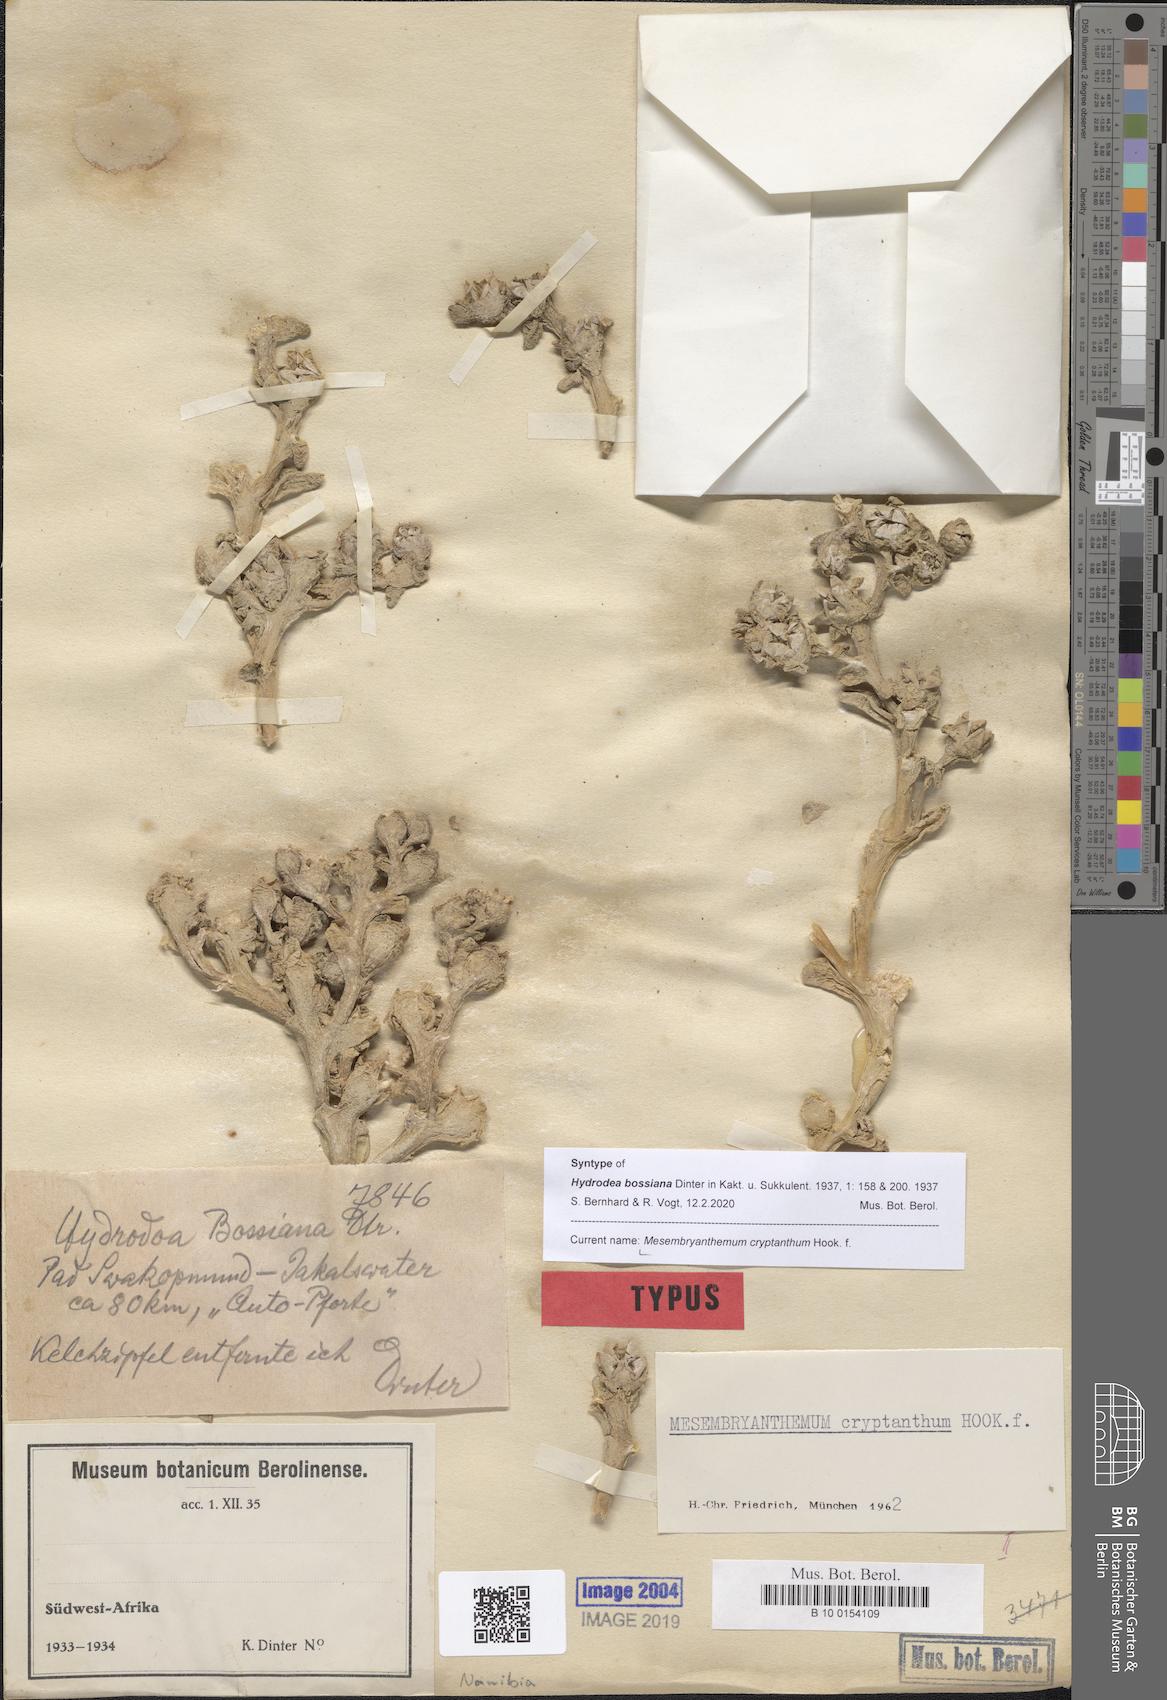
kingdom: Plantae
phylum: Tracheophyta
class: Magnoliopsida
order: Caryophyllales
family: Aizoaceae
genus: Mesembryanthemum
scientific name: Mesembryanthemum cryptanthum
